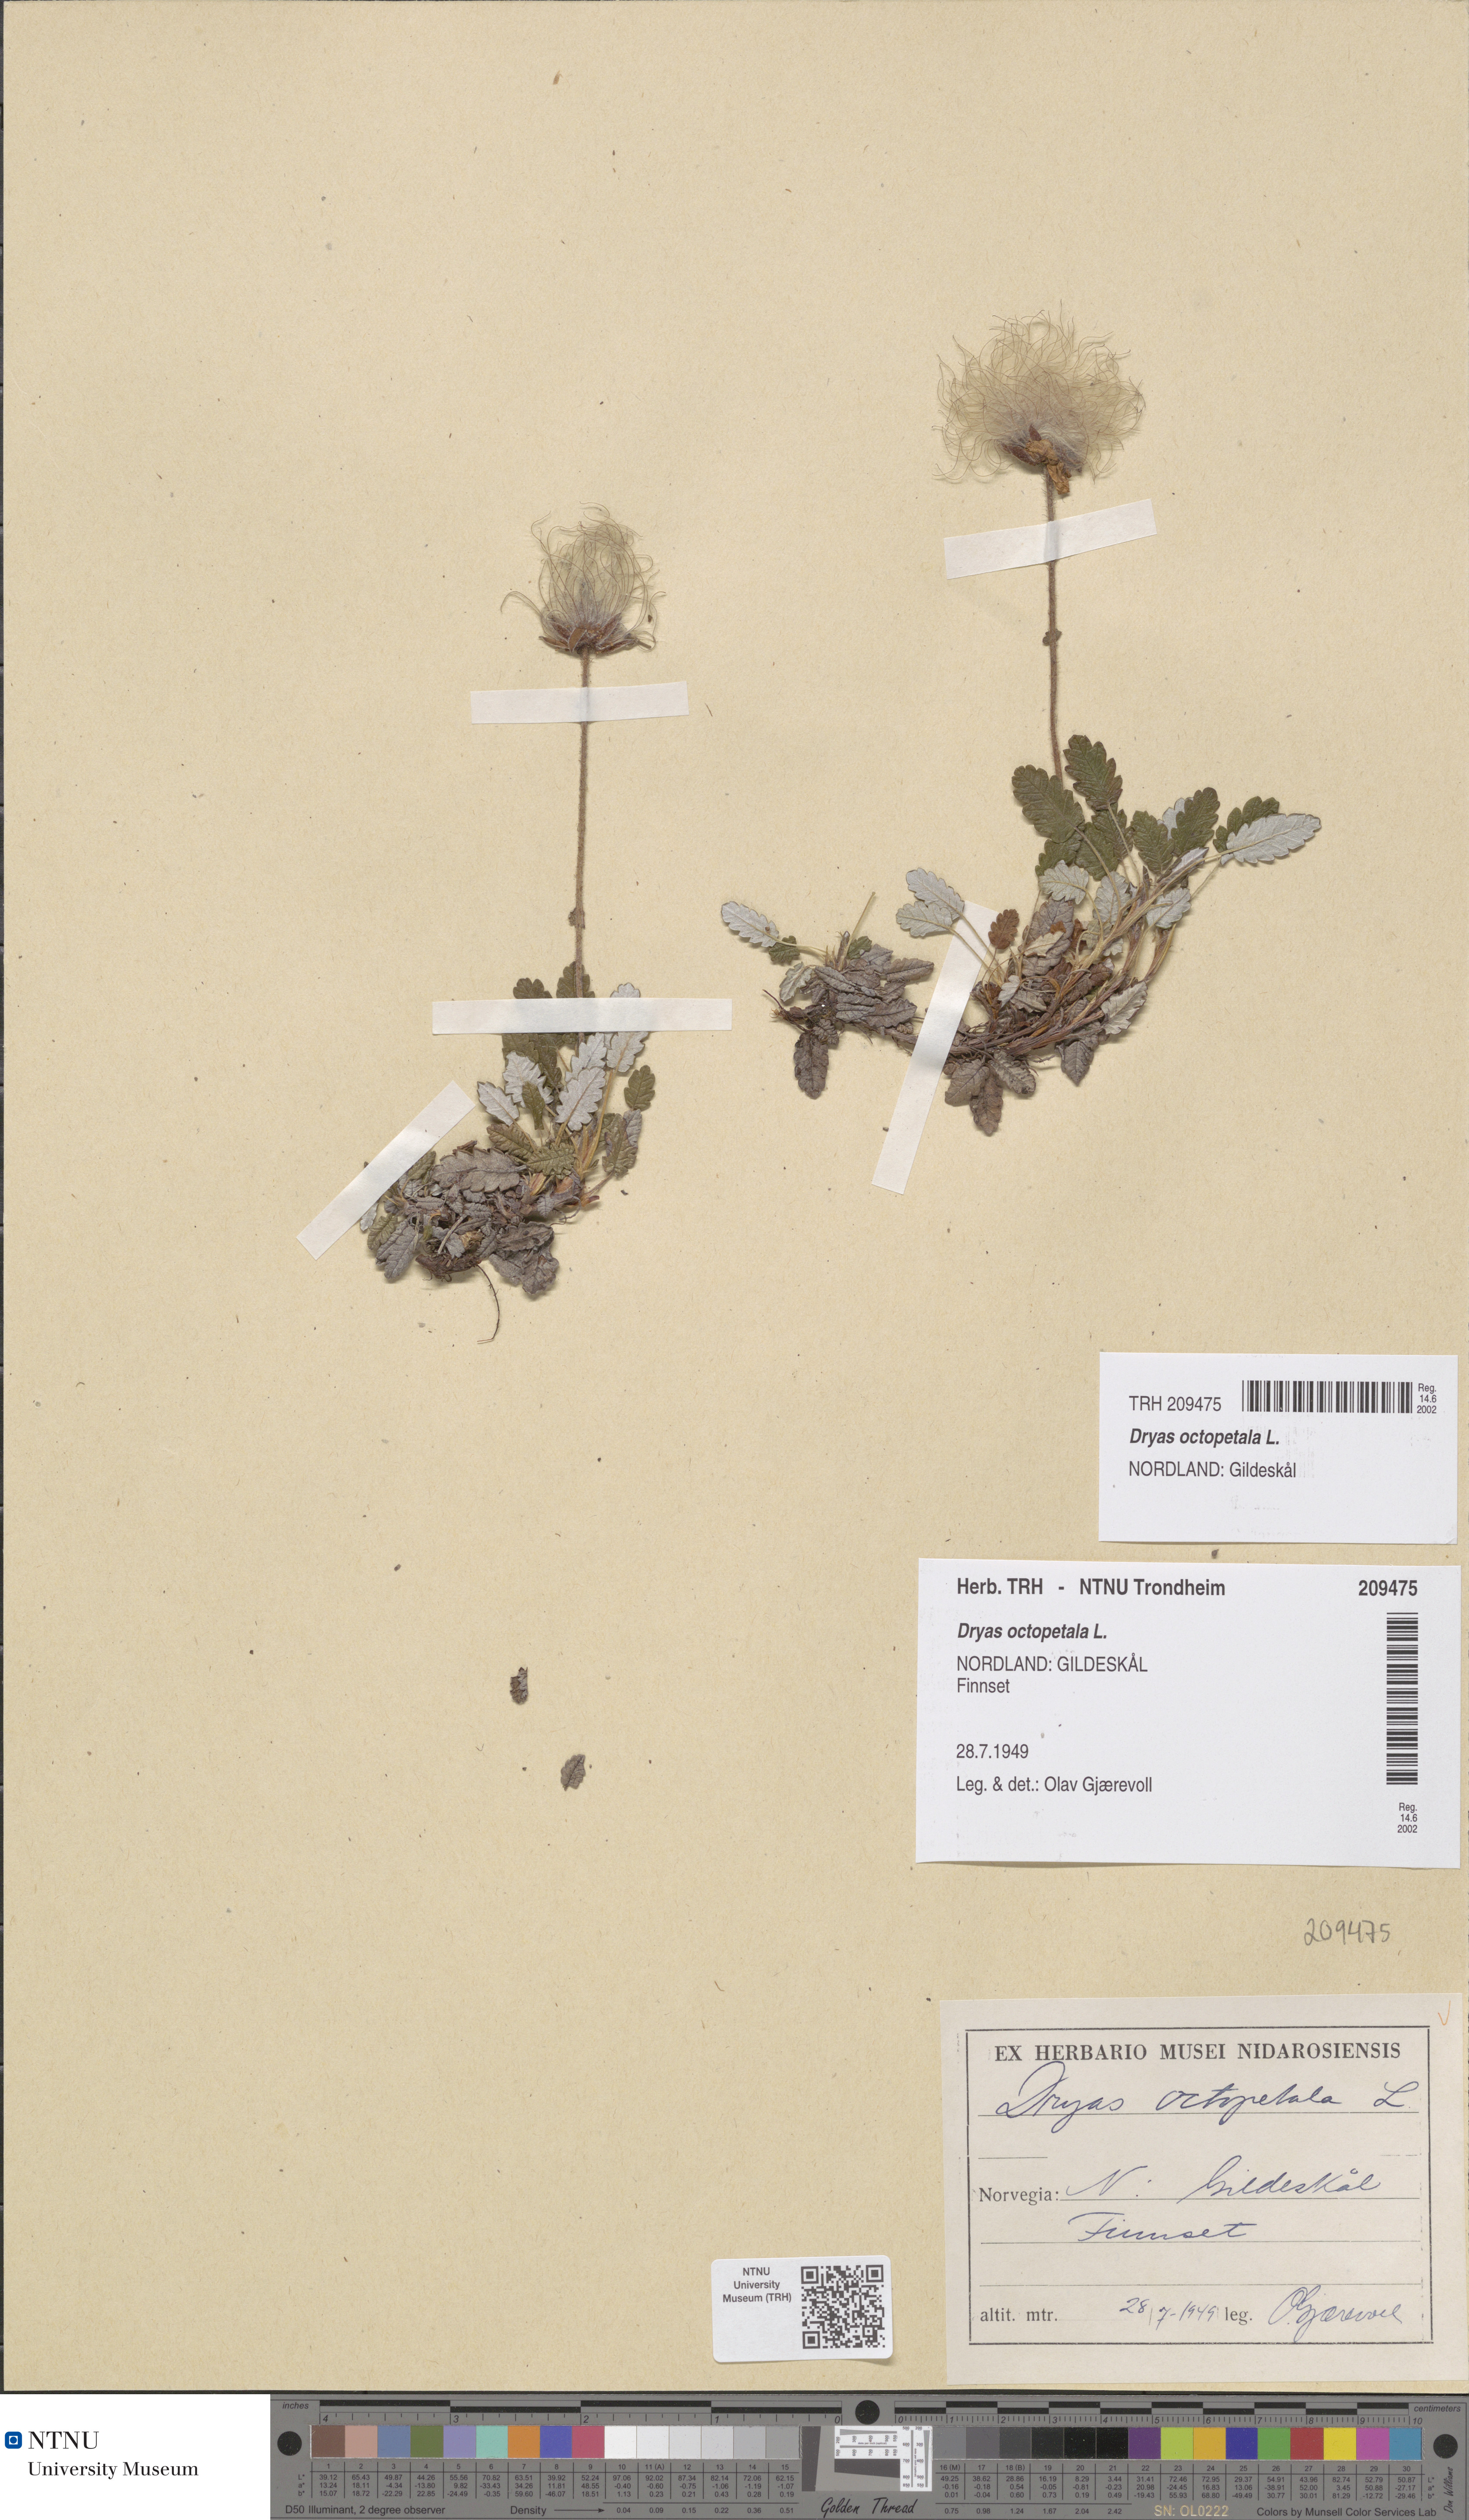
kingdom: Plantae
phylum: Tracheophyta
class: Magnoliopsida
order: Rosales
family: Rosaceae
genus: Dryas
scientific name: Dryas octopetala
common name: Eight-petal mountain-avens
